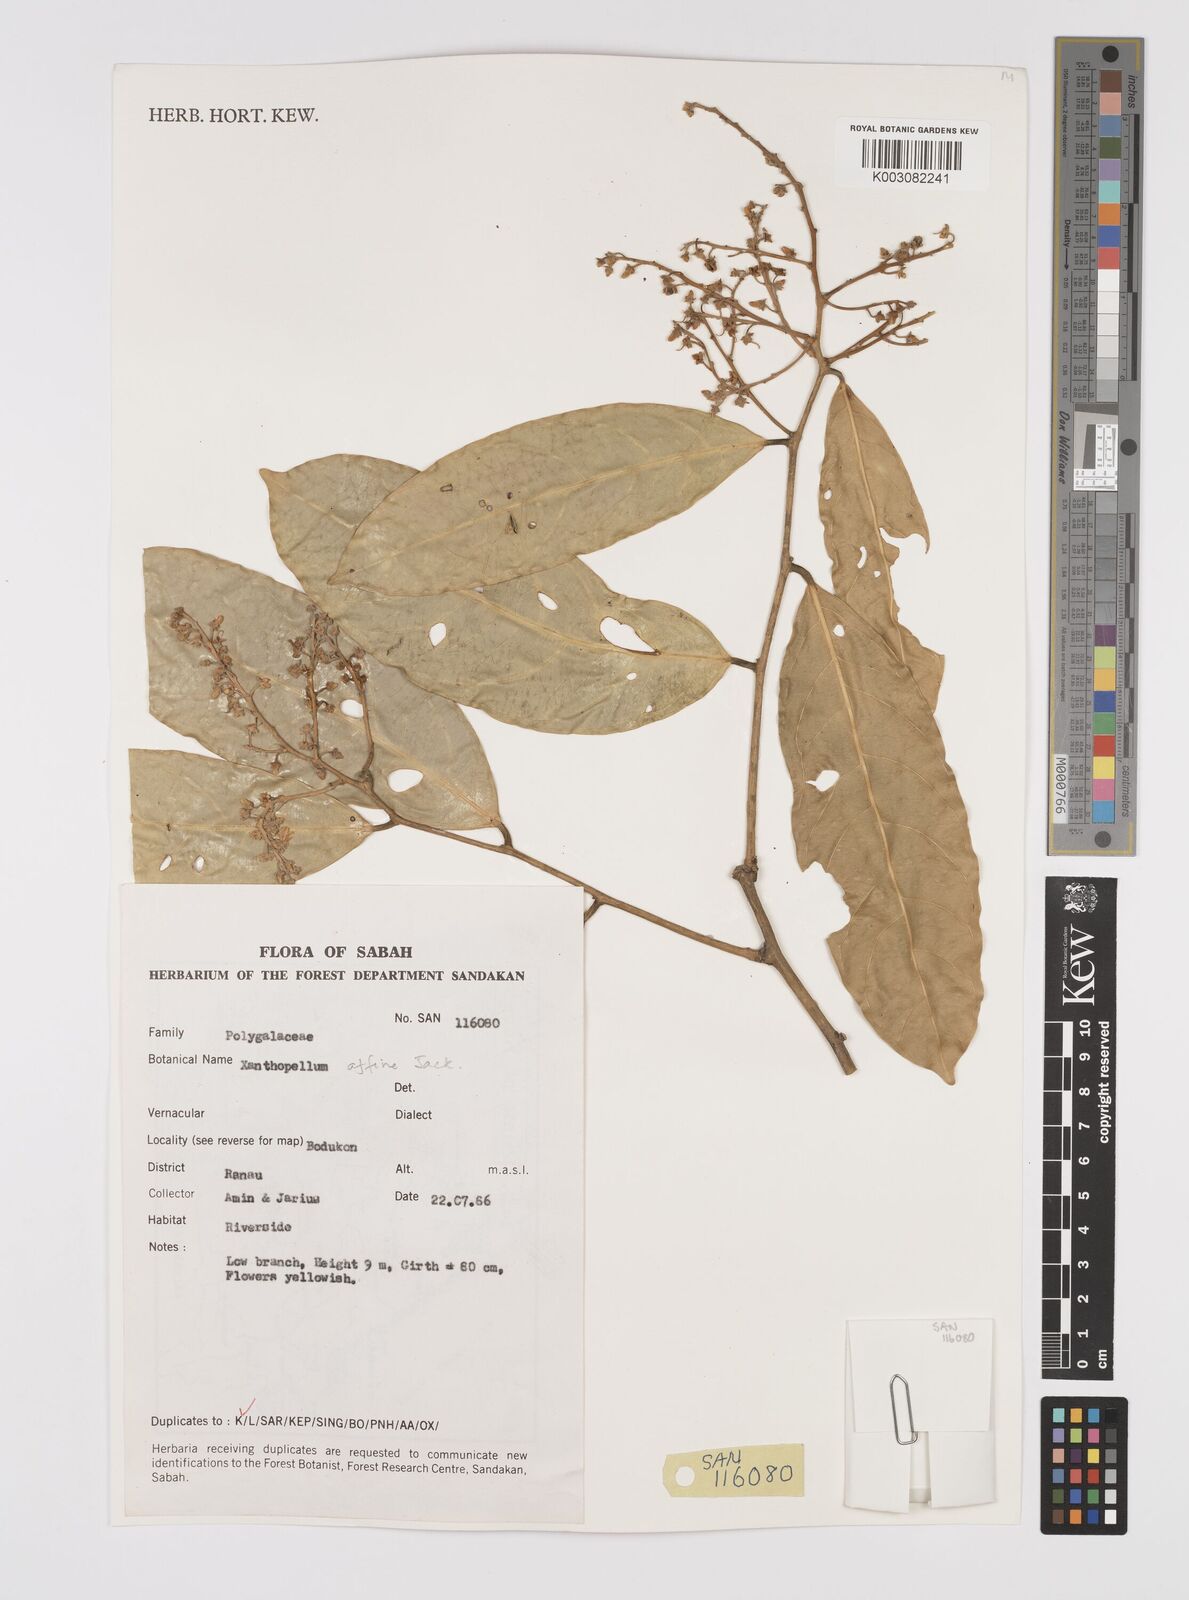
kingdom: Plantae
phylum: Tracheophyta
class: Magnoliopsida
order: Fabales
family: Polygalaceae
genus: Xanthophyllum
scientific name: Xanthophyllum flavescens
